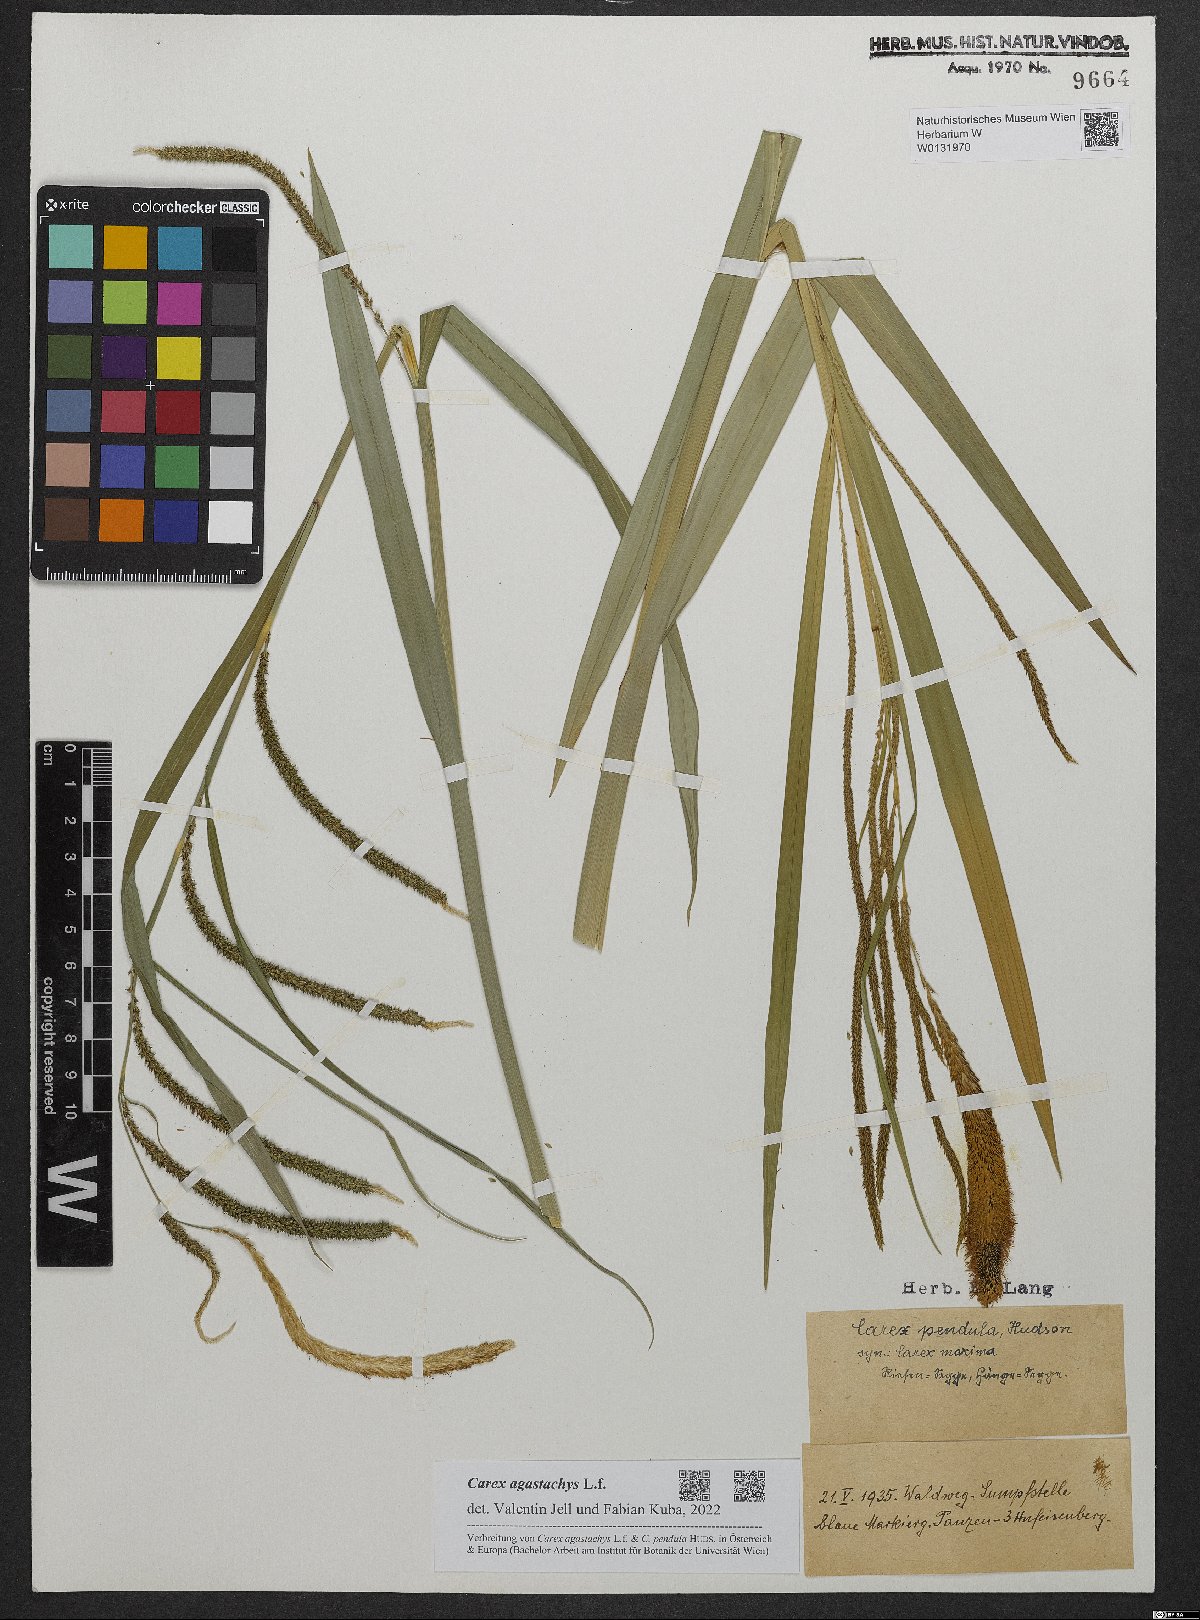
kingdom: Plantae
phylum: Tracheophyta
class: Liliopsida
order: Poales
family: Cyperaceae
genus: Carex
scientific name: Carex agastachys
